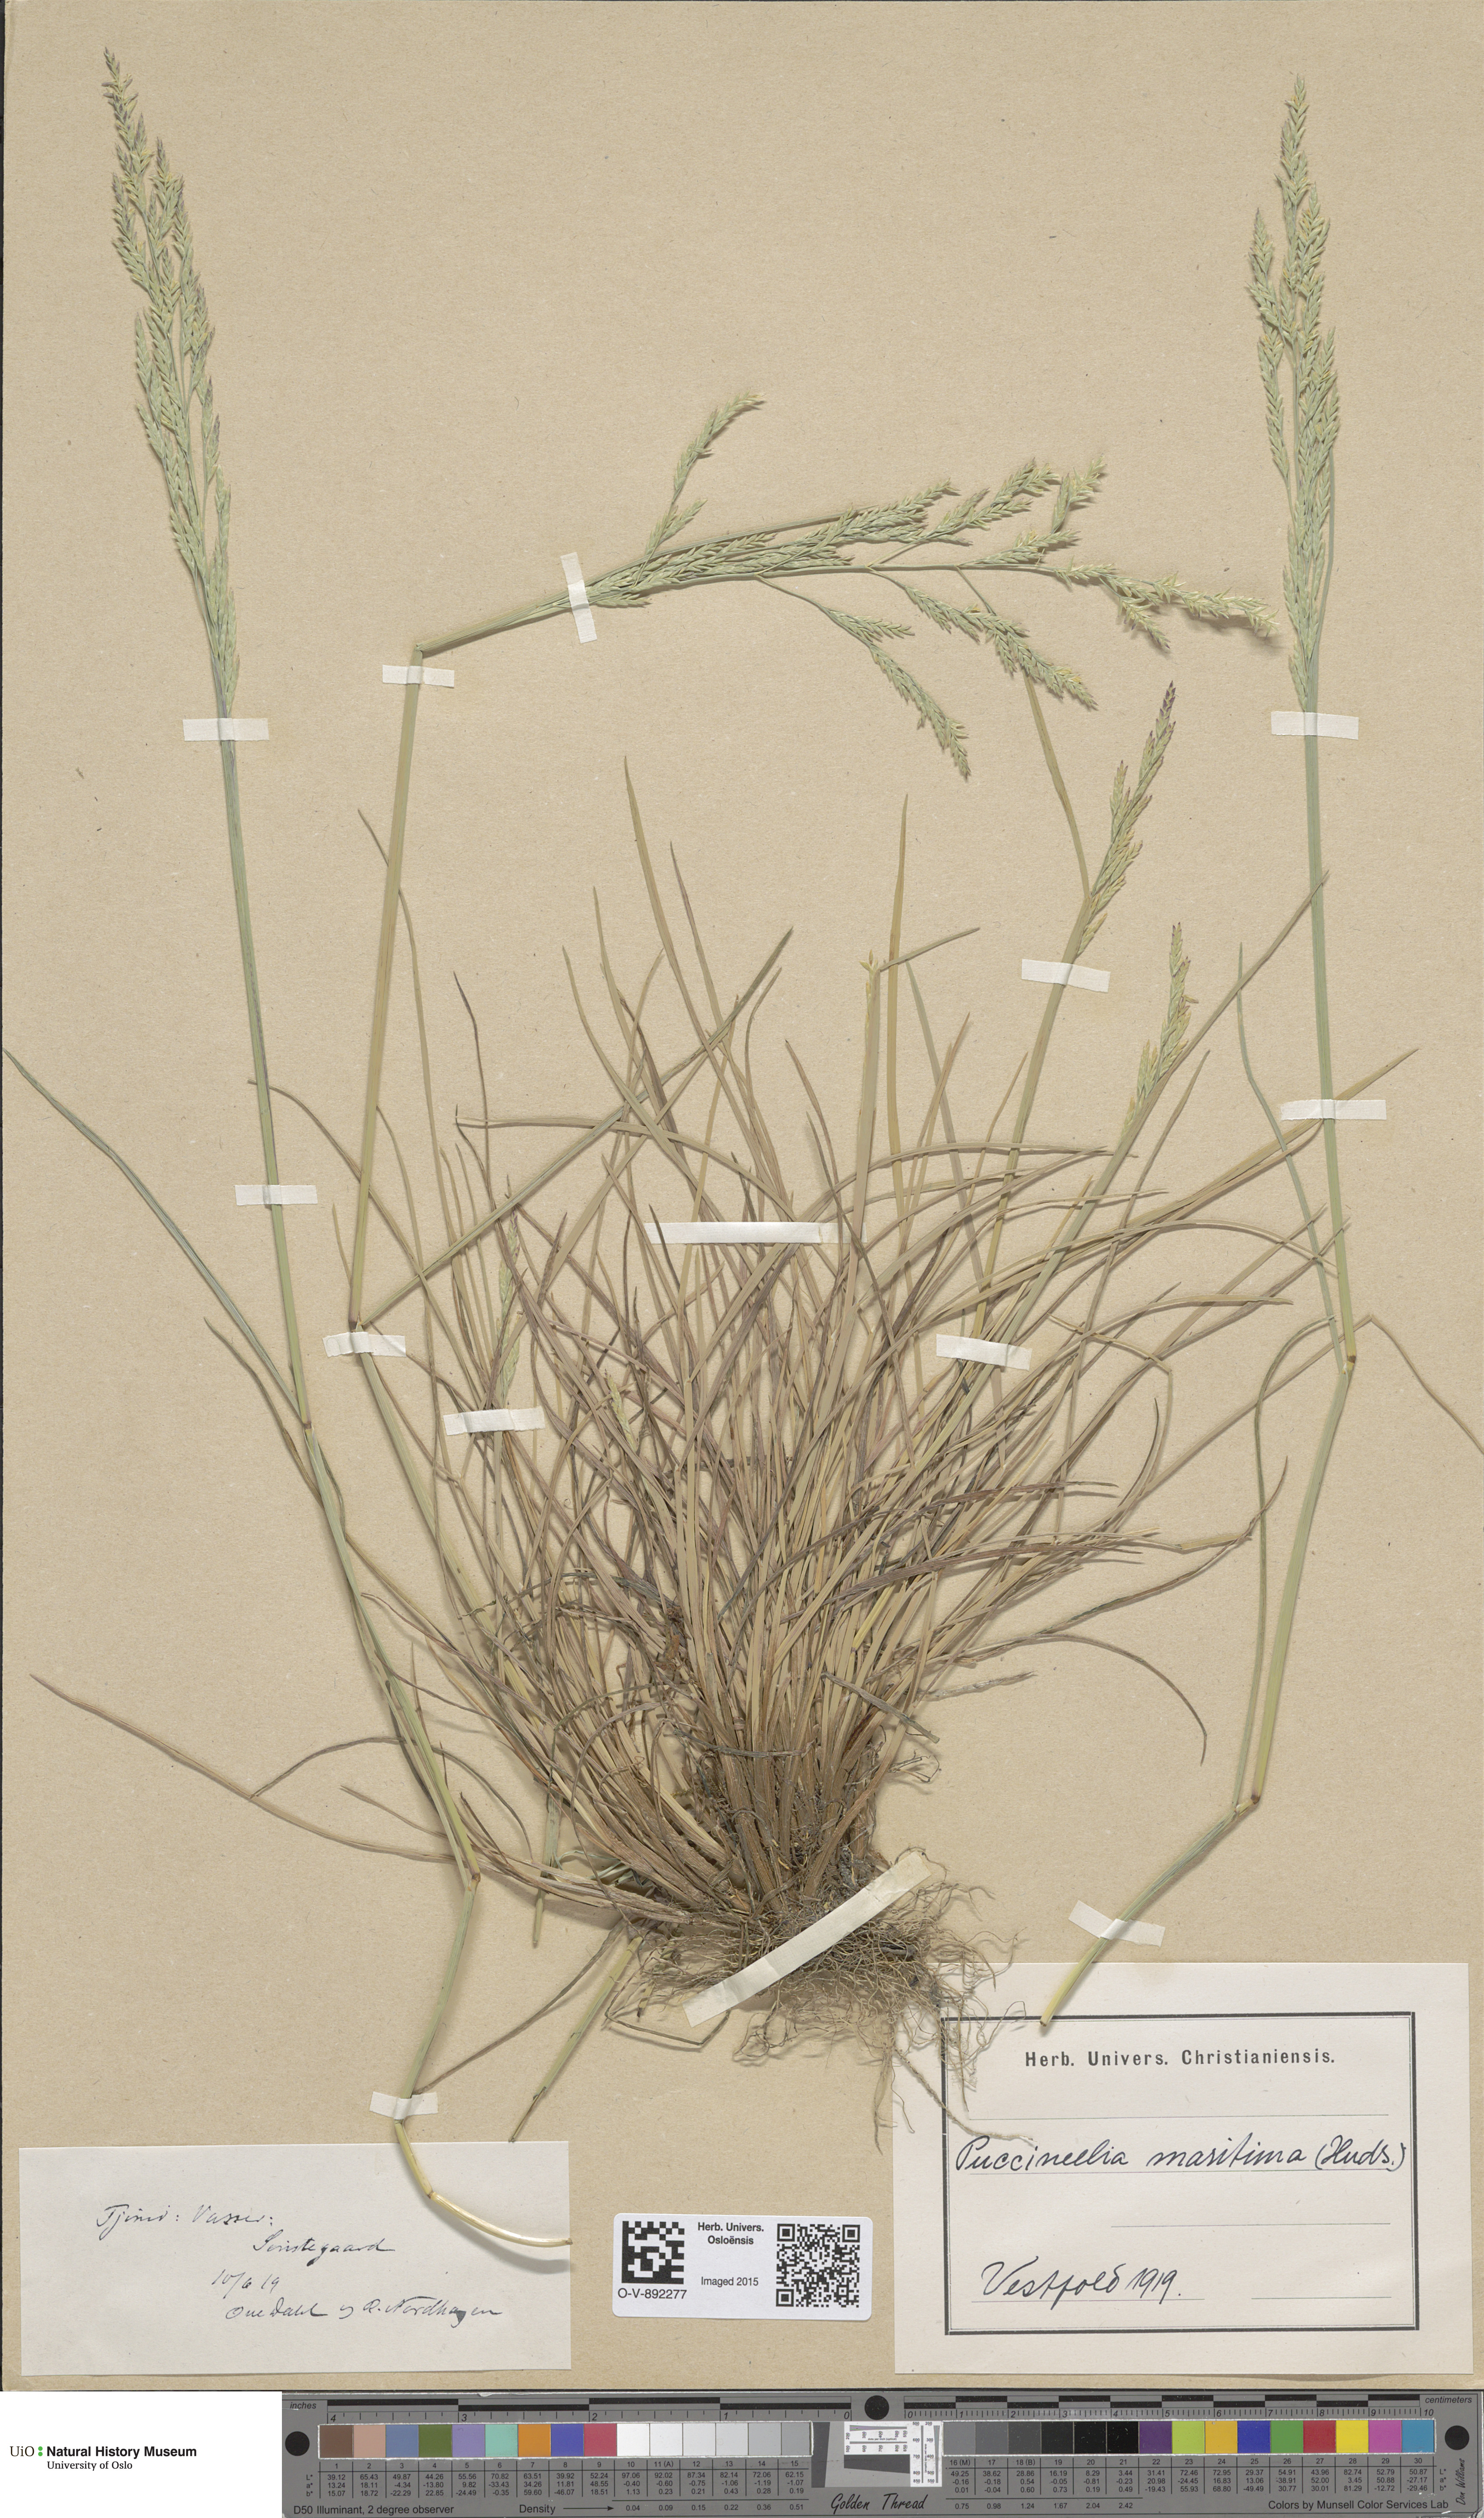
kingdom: Plantae
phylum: Tracheophyta
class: Liliopsida
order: Poales
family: Poaceae
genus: Puccinellia
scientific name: Puccinellia maritima
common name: Common saltmarsh grass
